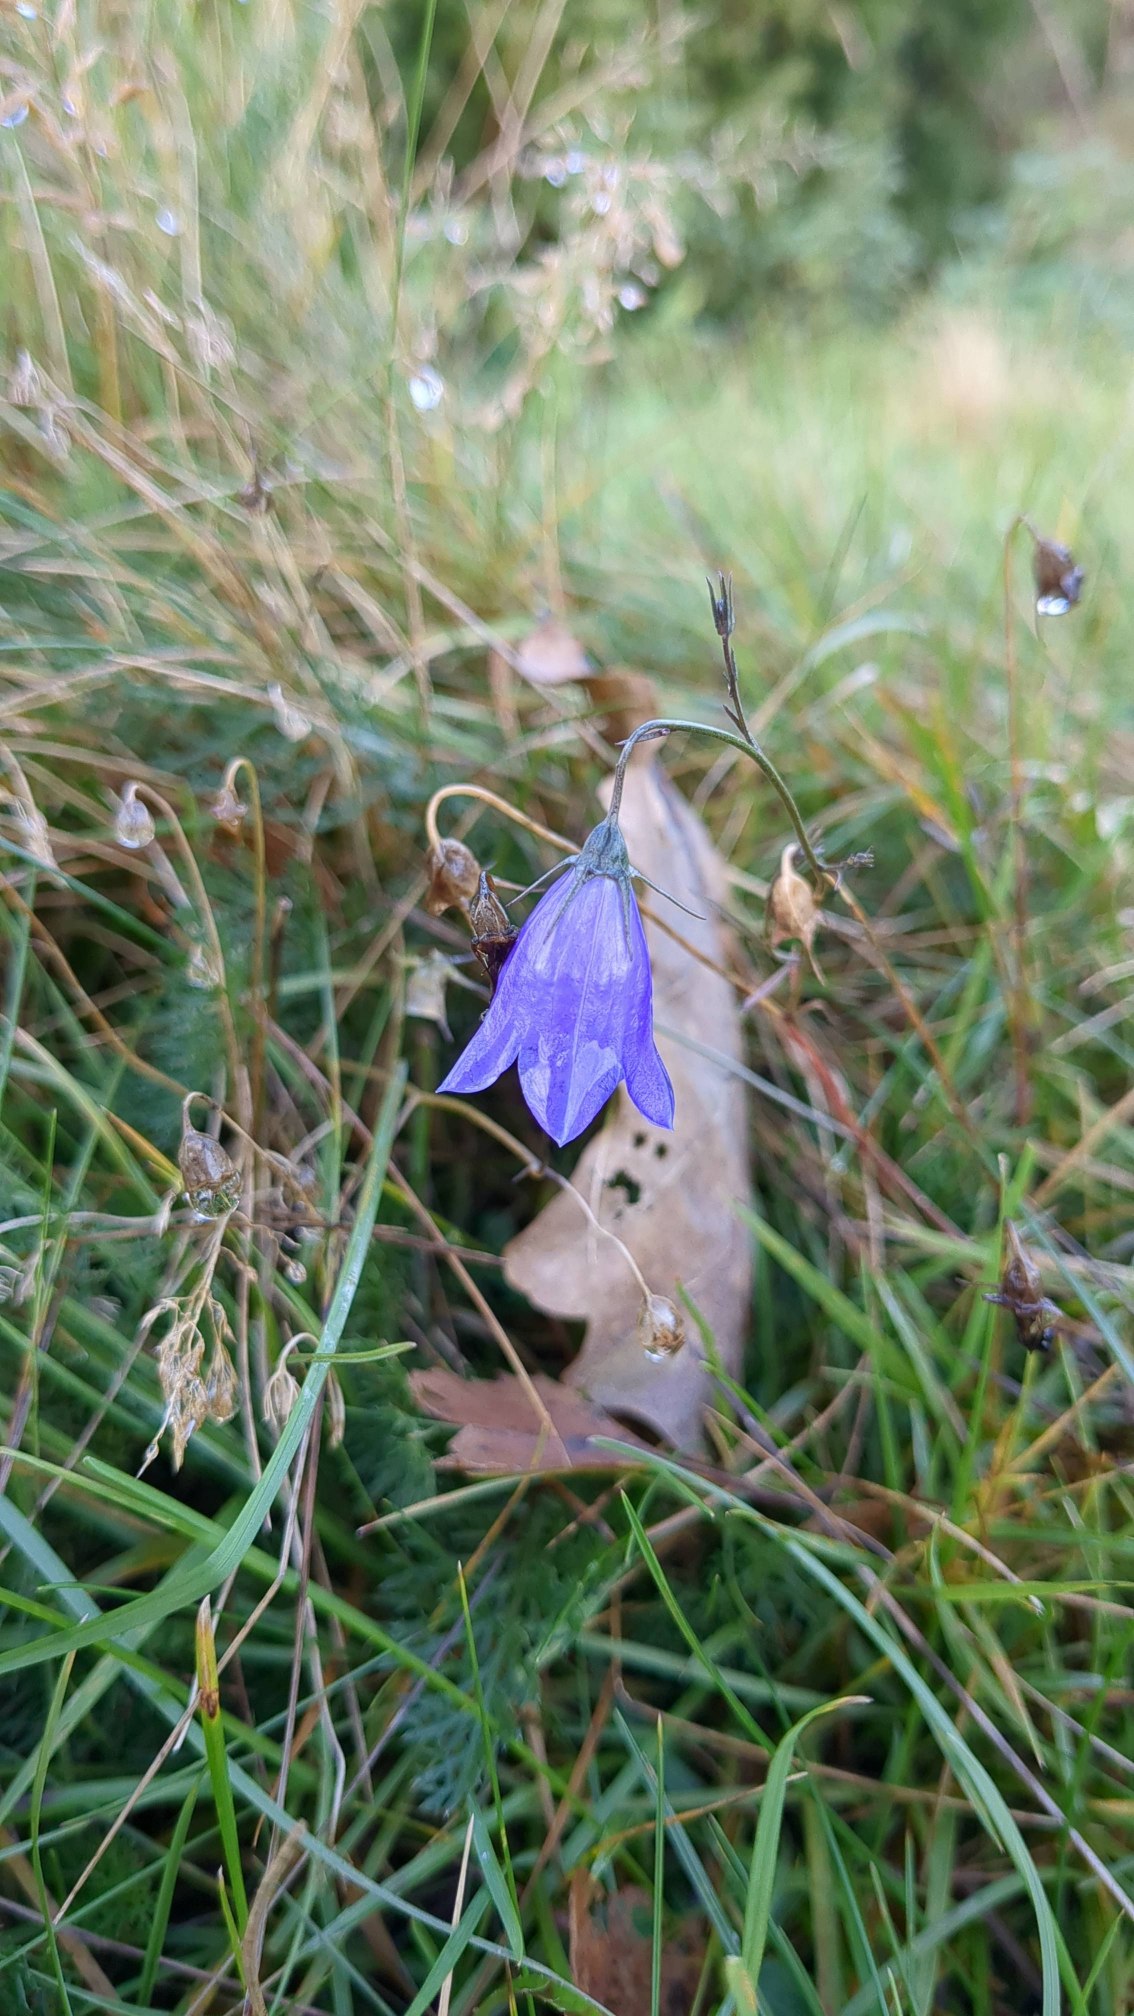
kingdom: Plantae
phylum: Tracheophyta
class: Magnoliopsida
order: Asterales
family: Campanulaceae
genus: Campanula
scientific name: Campanula rotundifolia
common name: Liden klokke
